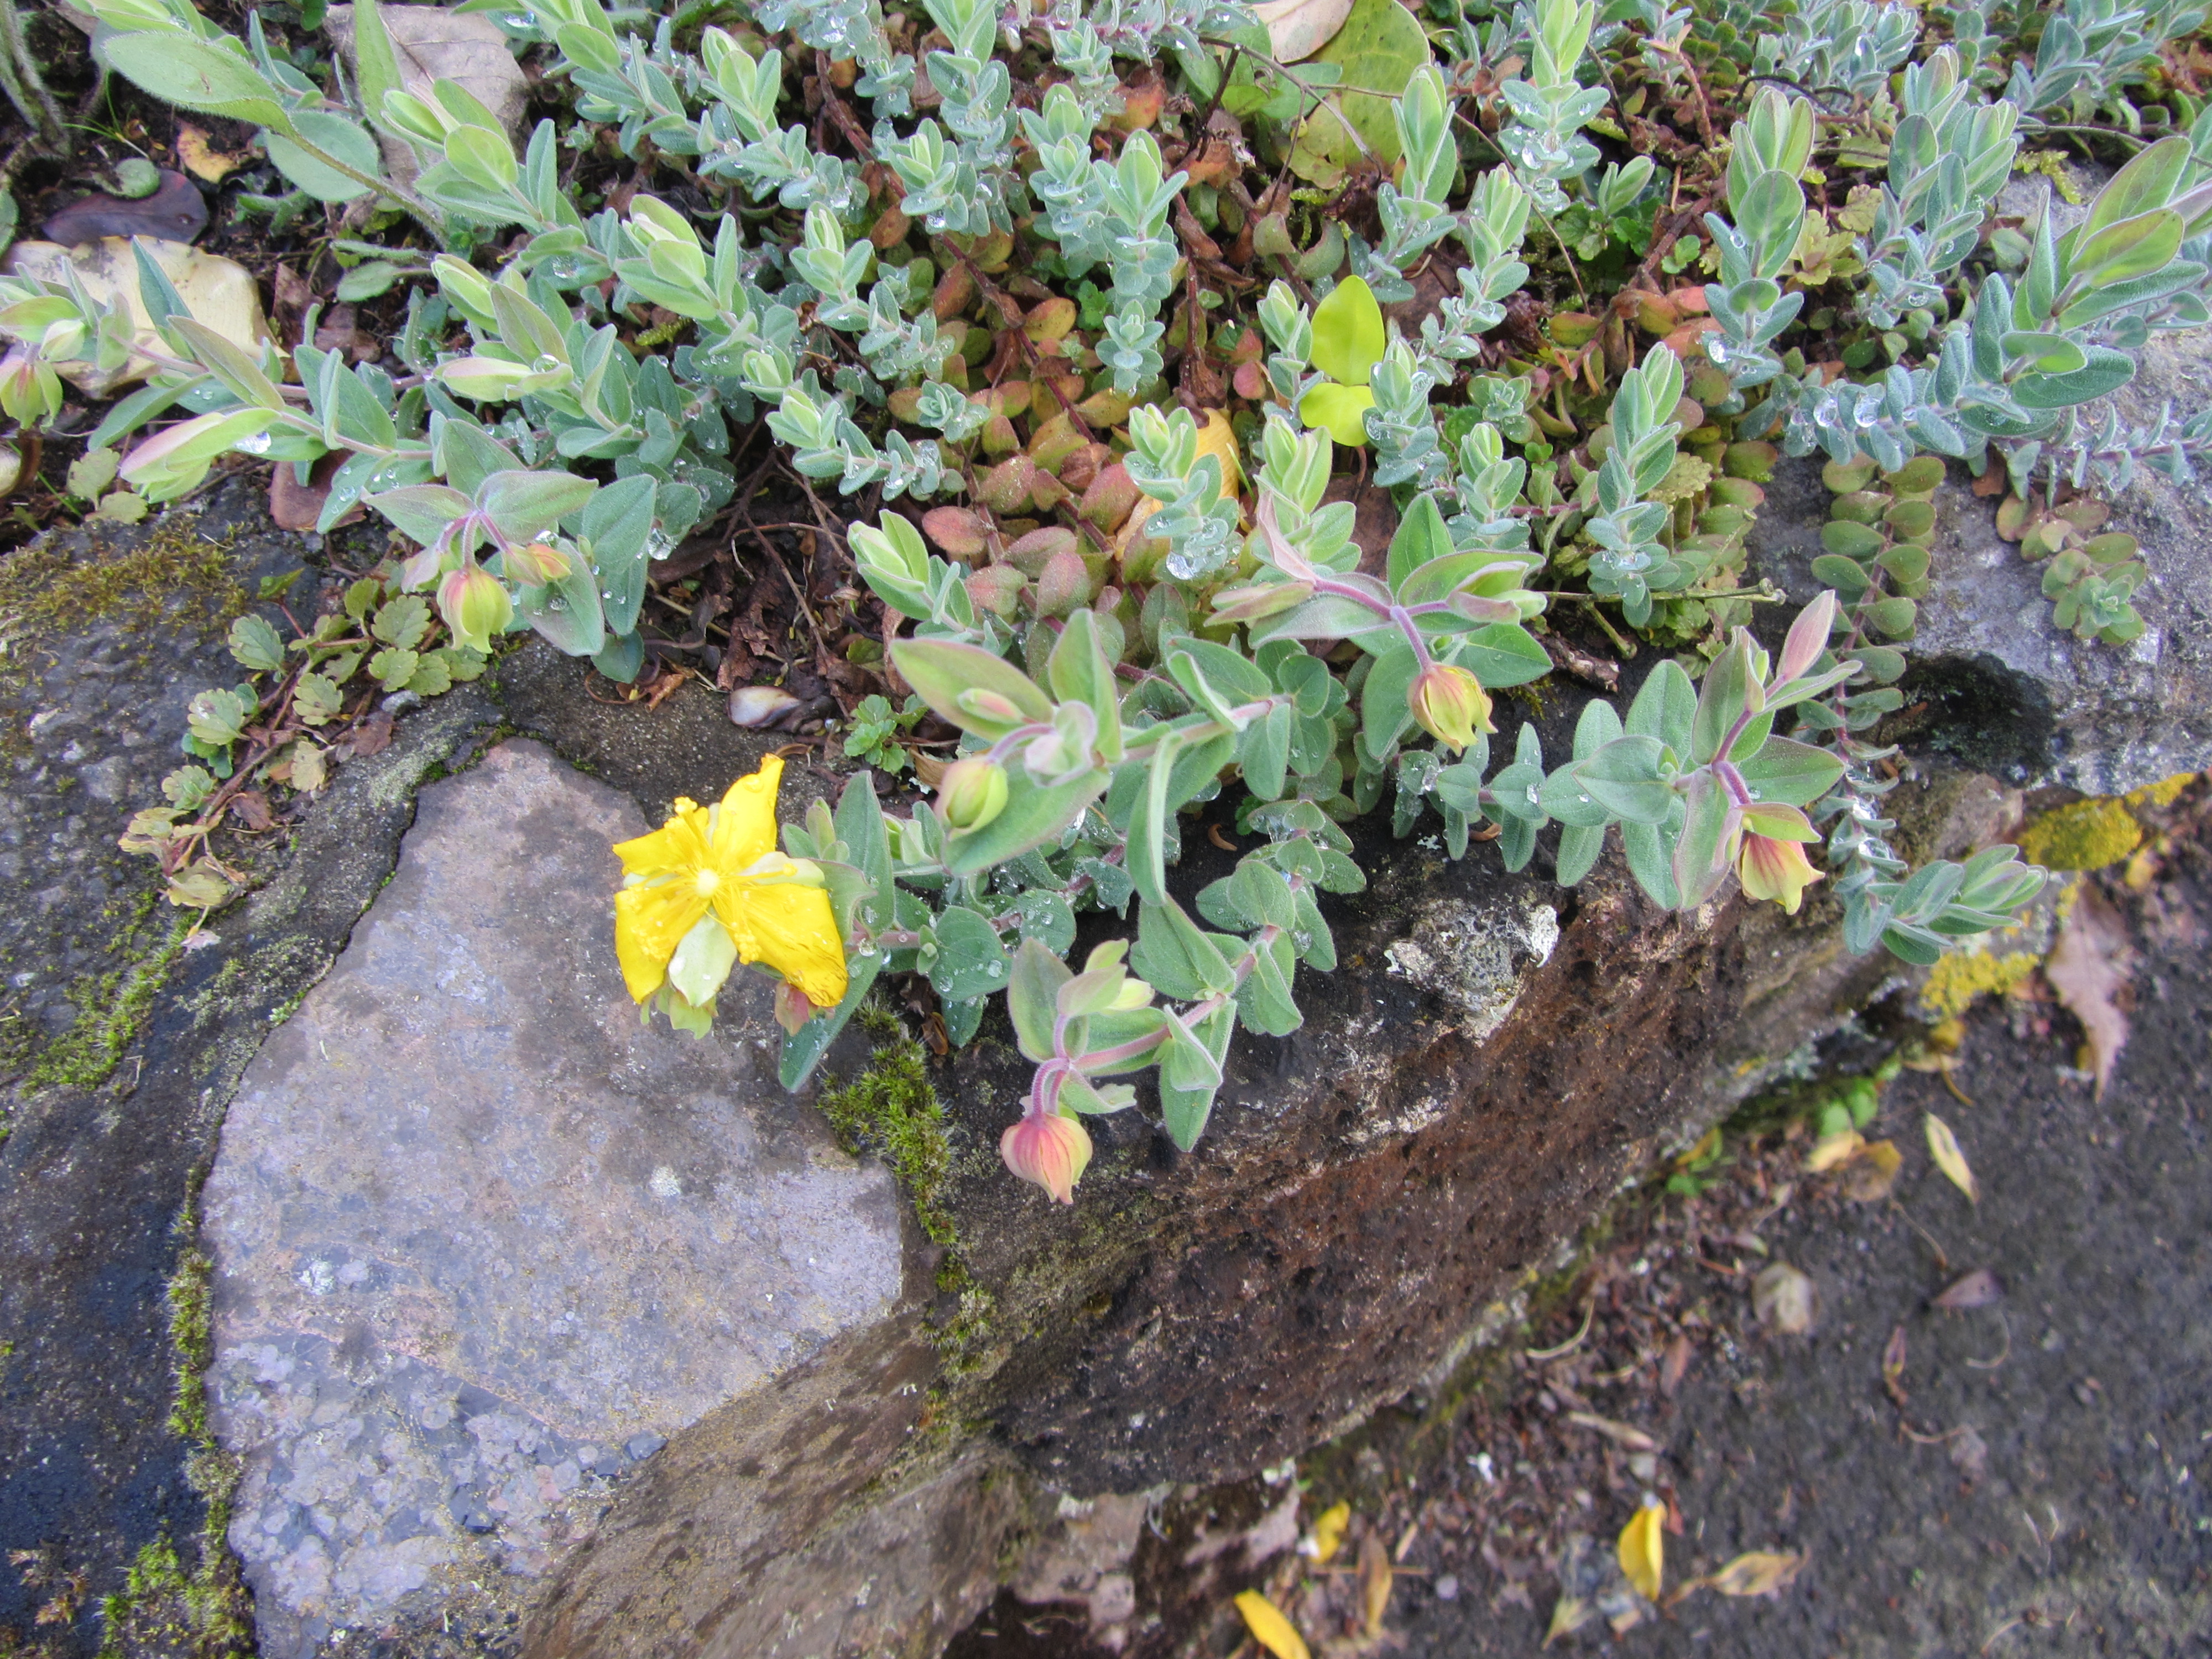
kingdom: Plantae
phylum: Tracheophyta
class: Magnoliopsida
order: Malpighiales
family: Hypericaceae
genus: Hypericum
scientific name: Hypericum olympicum
